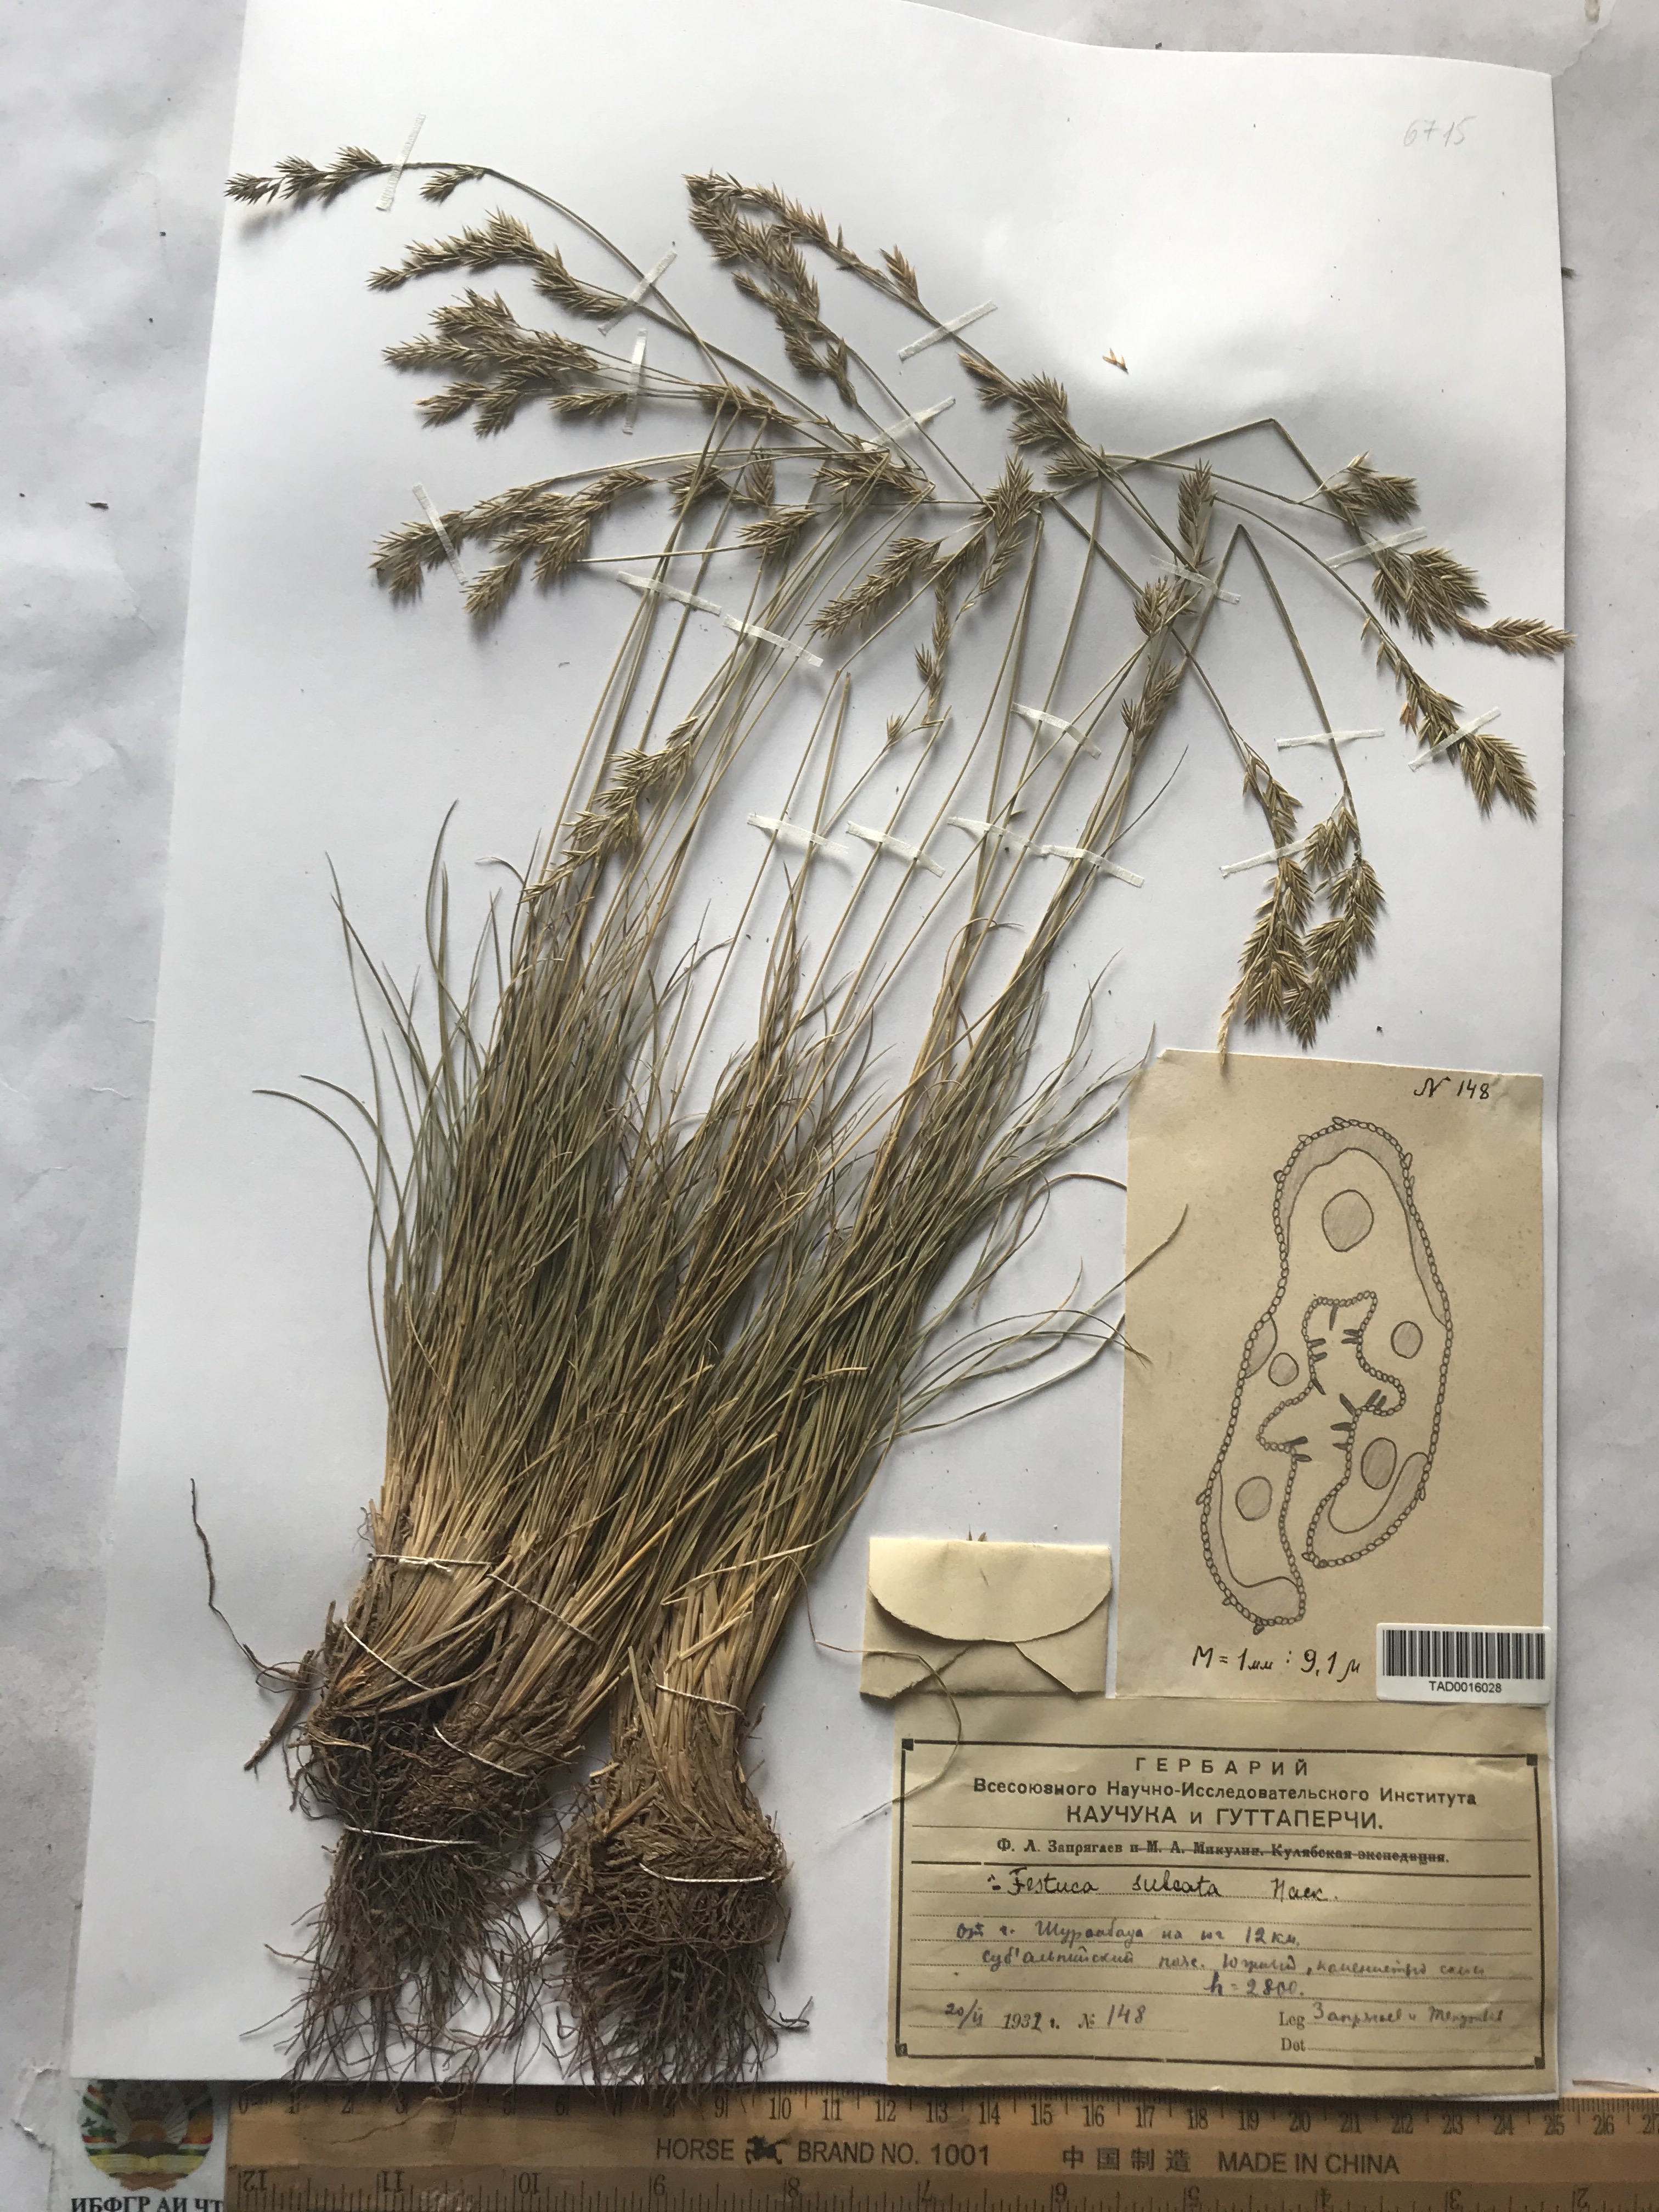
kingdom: Plantae
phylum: Tracheophyta
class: Liliopsida
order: Poales
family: Poaceae
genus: Festuca
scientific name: Festuca sulcata
